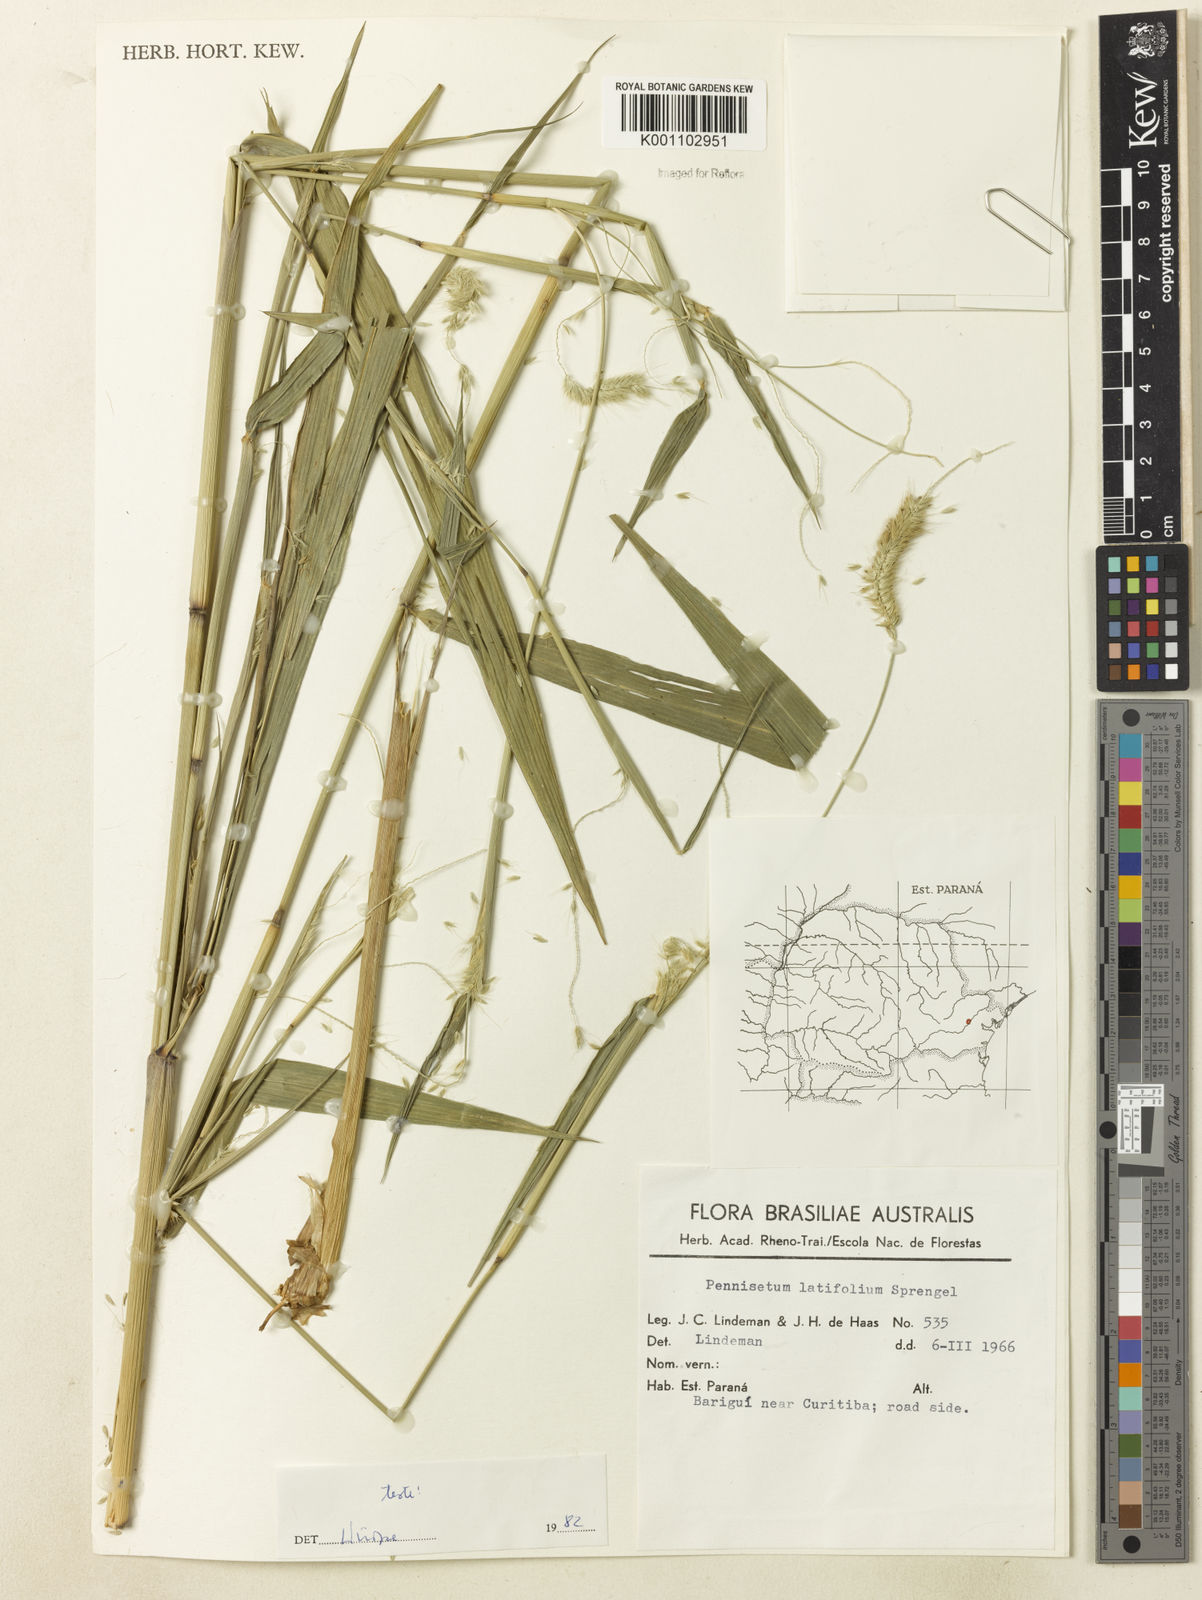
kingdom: Plantae
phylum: Tracheophyta
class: Liliopsida
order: Poales
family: Poaceae
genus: Cenchrus
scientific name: Cenchrus latifolius
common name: Sandbur
